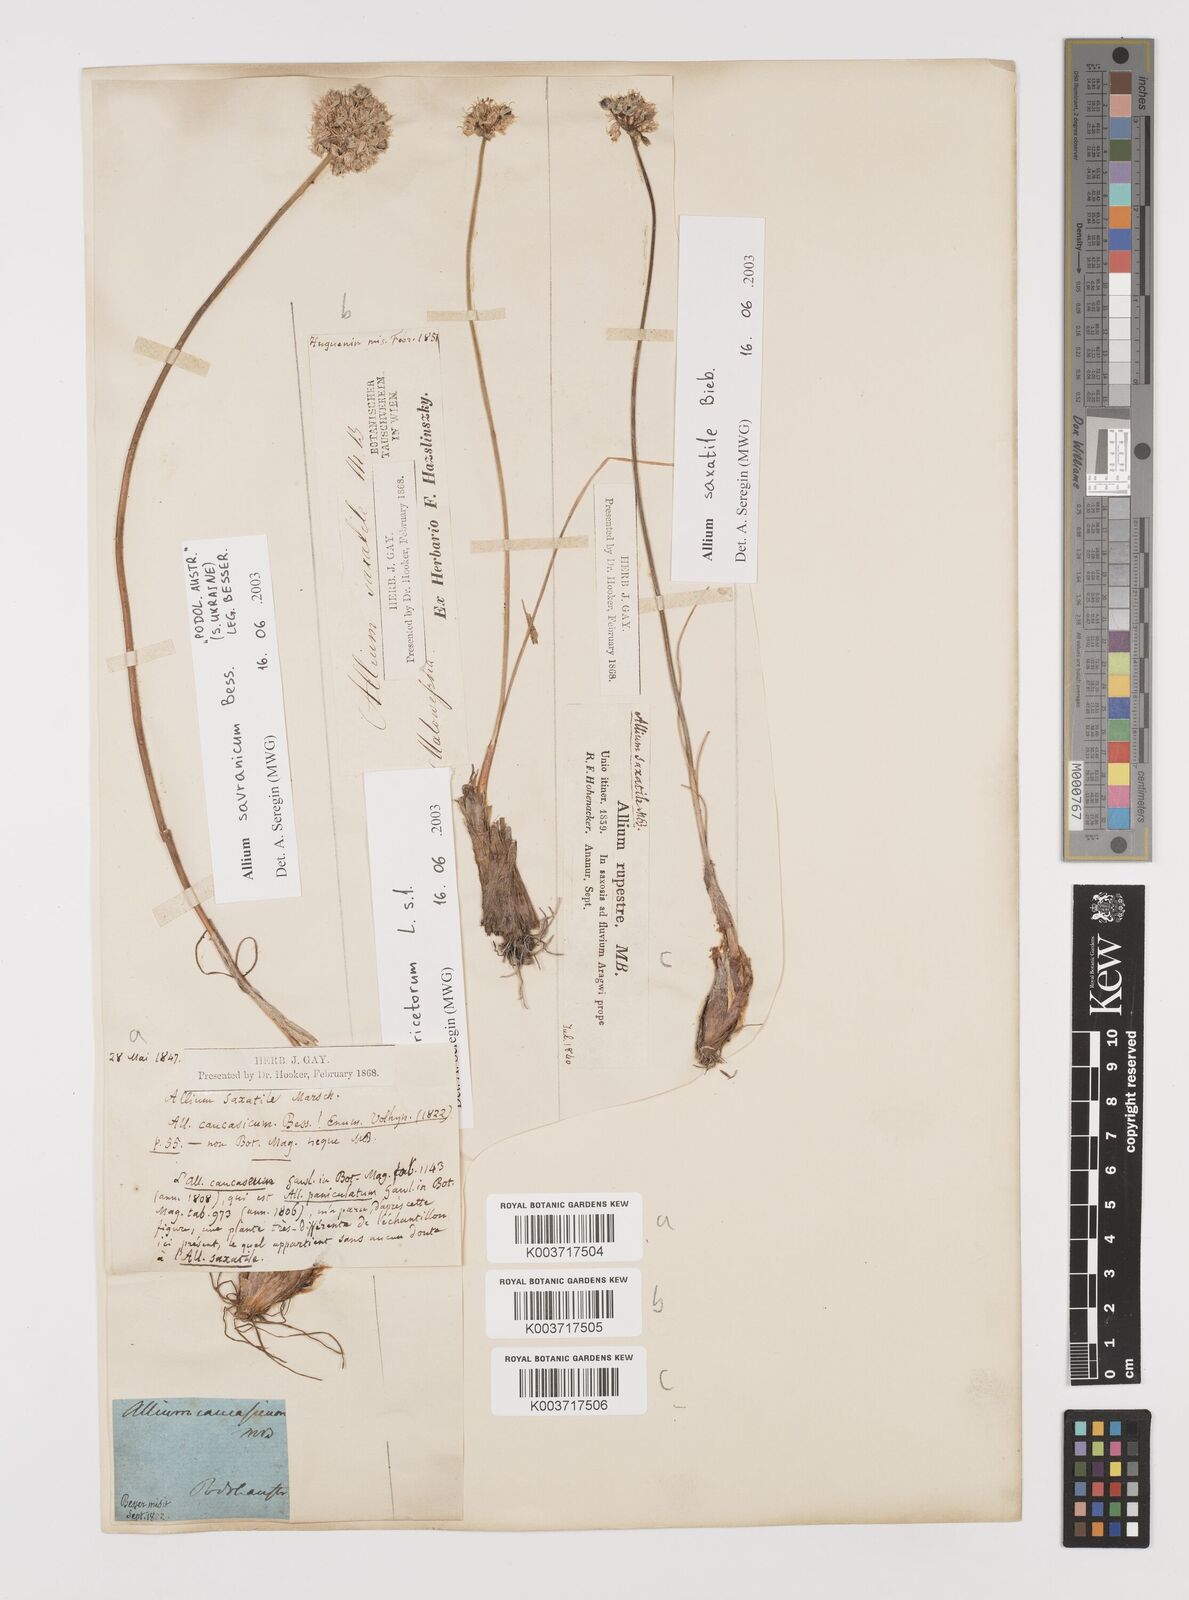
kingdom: Plantae
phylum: Tracheophyta
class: Liliopsida
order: Asparagales
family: Amaryllidaceae
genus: Allium
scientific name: Allium saxatile
